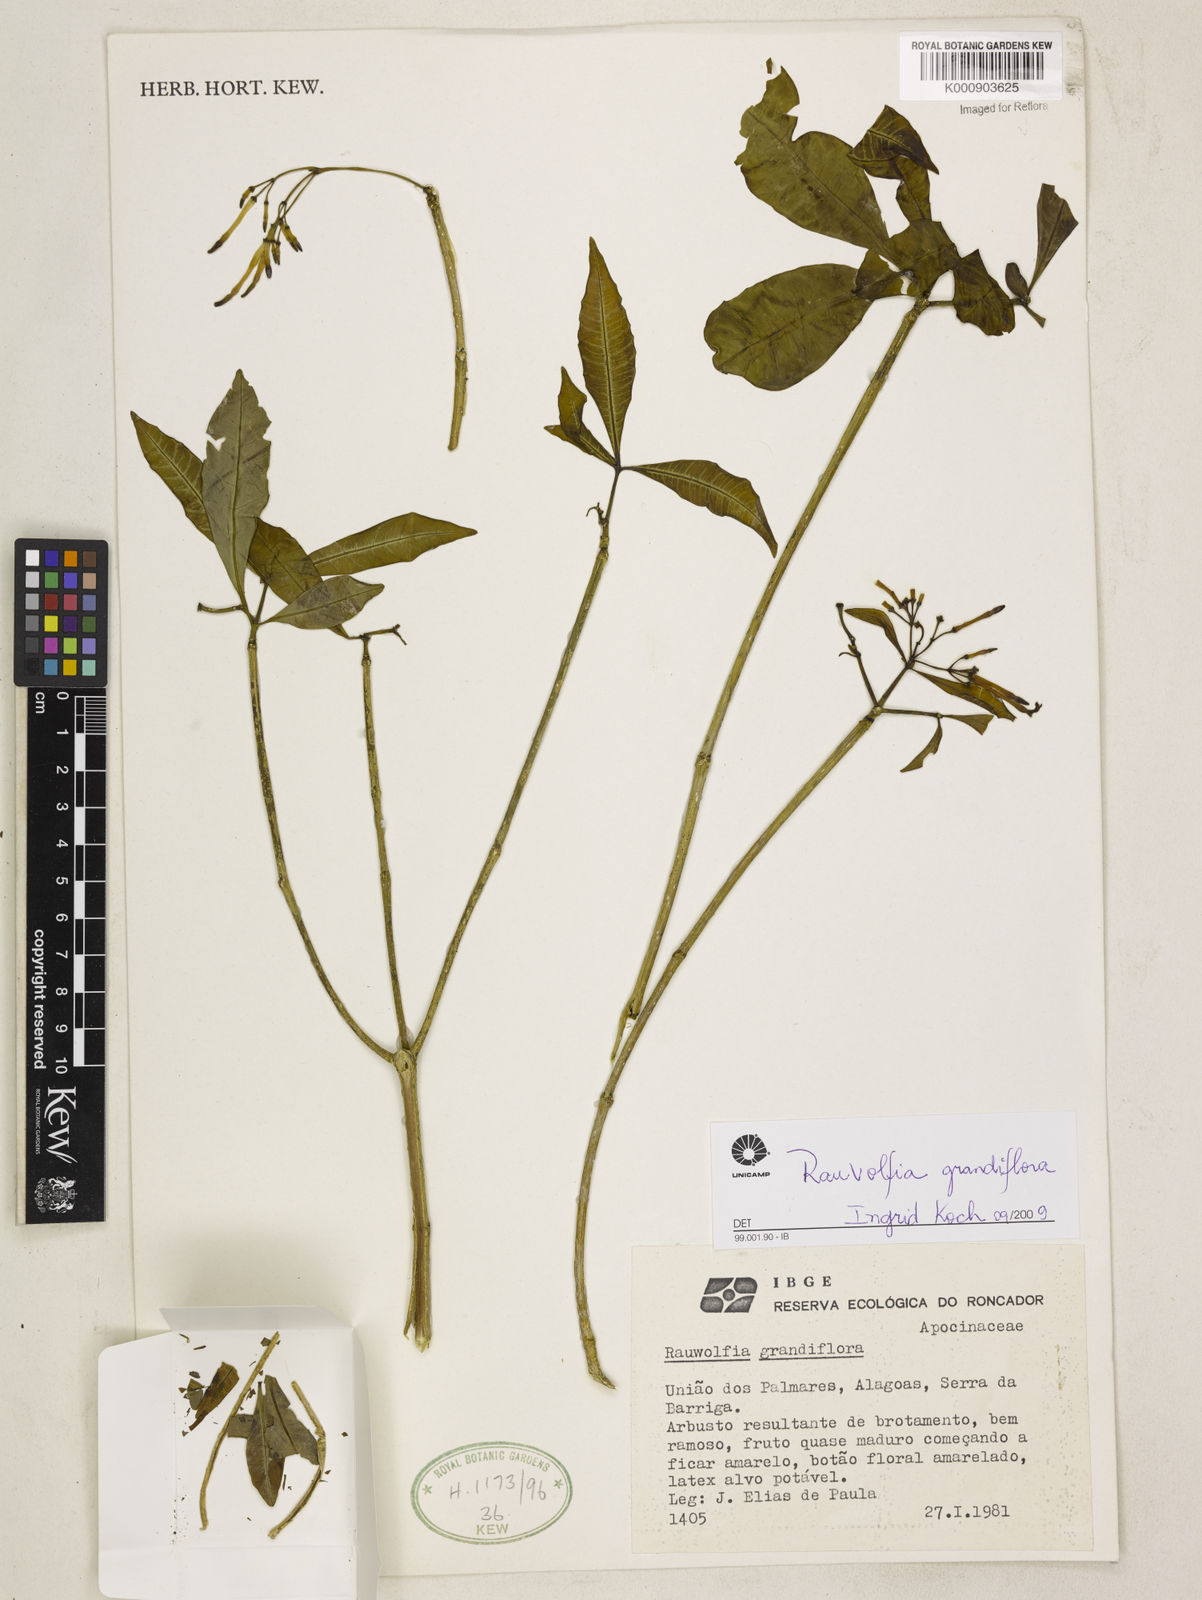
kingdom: Plantae
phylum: Tracheophyta
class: Magnoliopsida
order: Gentianales
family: Apocynaceae
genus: Rauvolfia
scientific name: Rauvolfia
